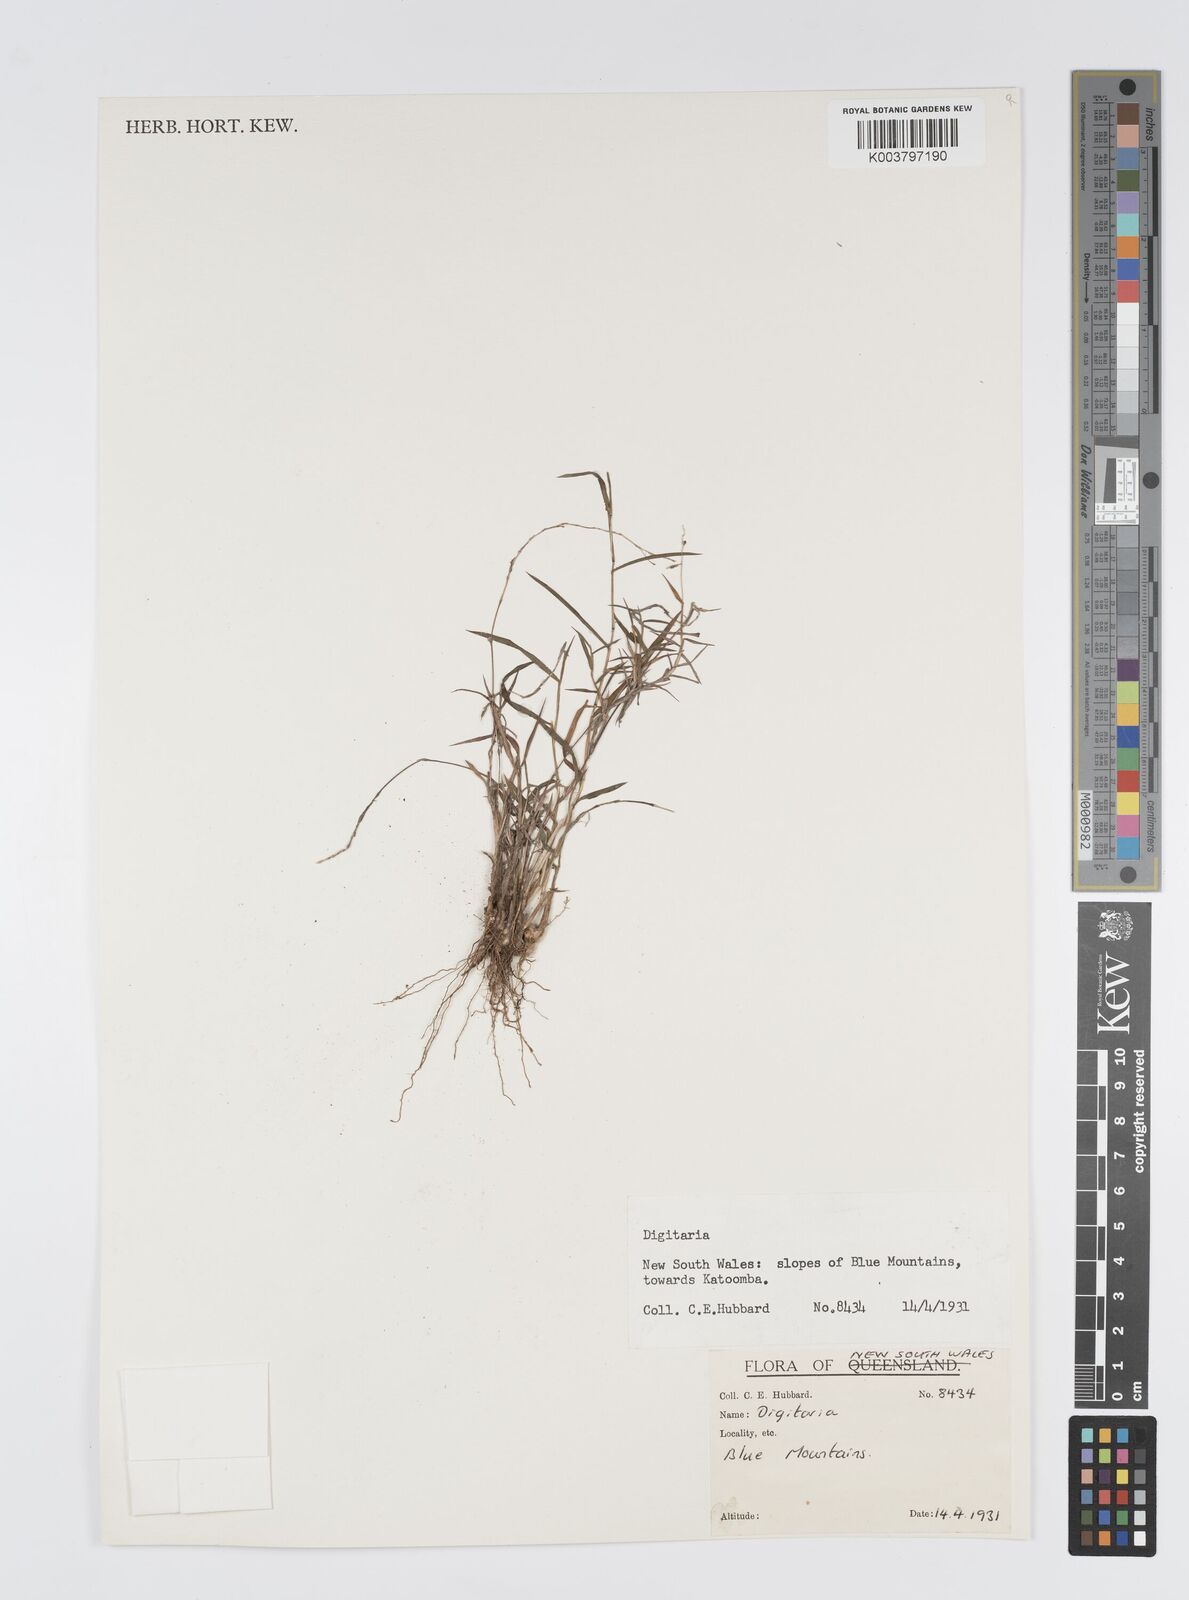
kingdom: Plantae
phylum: Tracheophyta
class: Liliopsida
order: Poales
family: Poaceae
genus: Digitaria
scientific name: Digitaria spec
